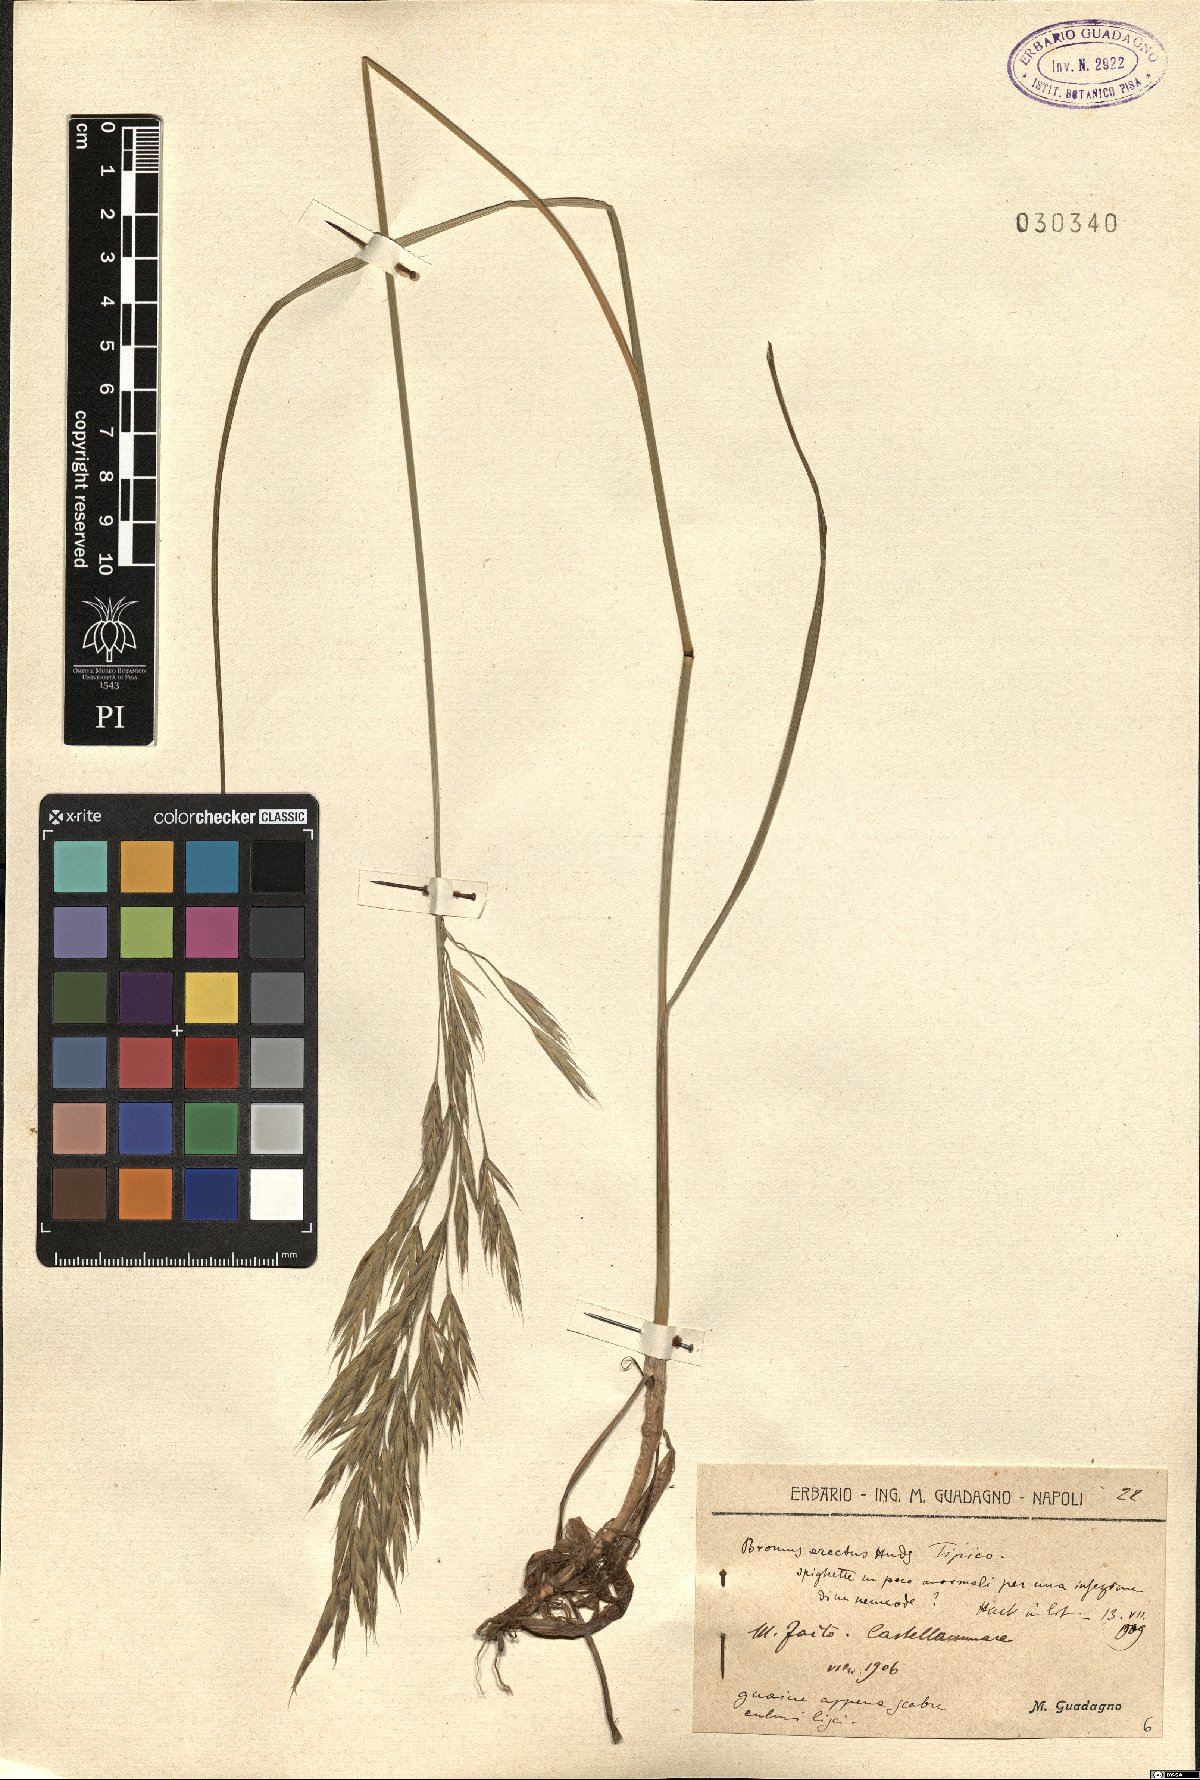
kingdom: Plantae
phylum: Tracheophyta
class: Liliopsida
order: Poales
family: Poaceae
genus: Bromus
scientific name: Bromus erectus
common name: Erect brome
